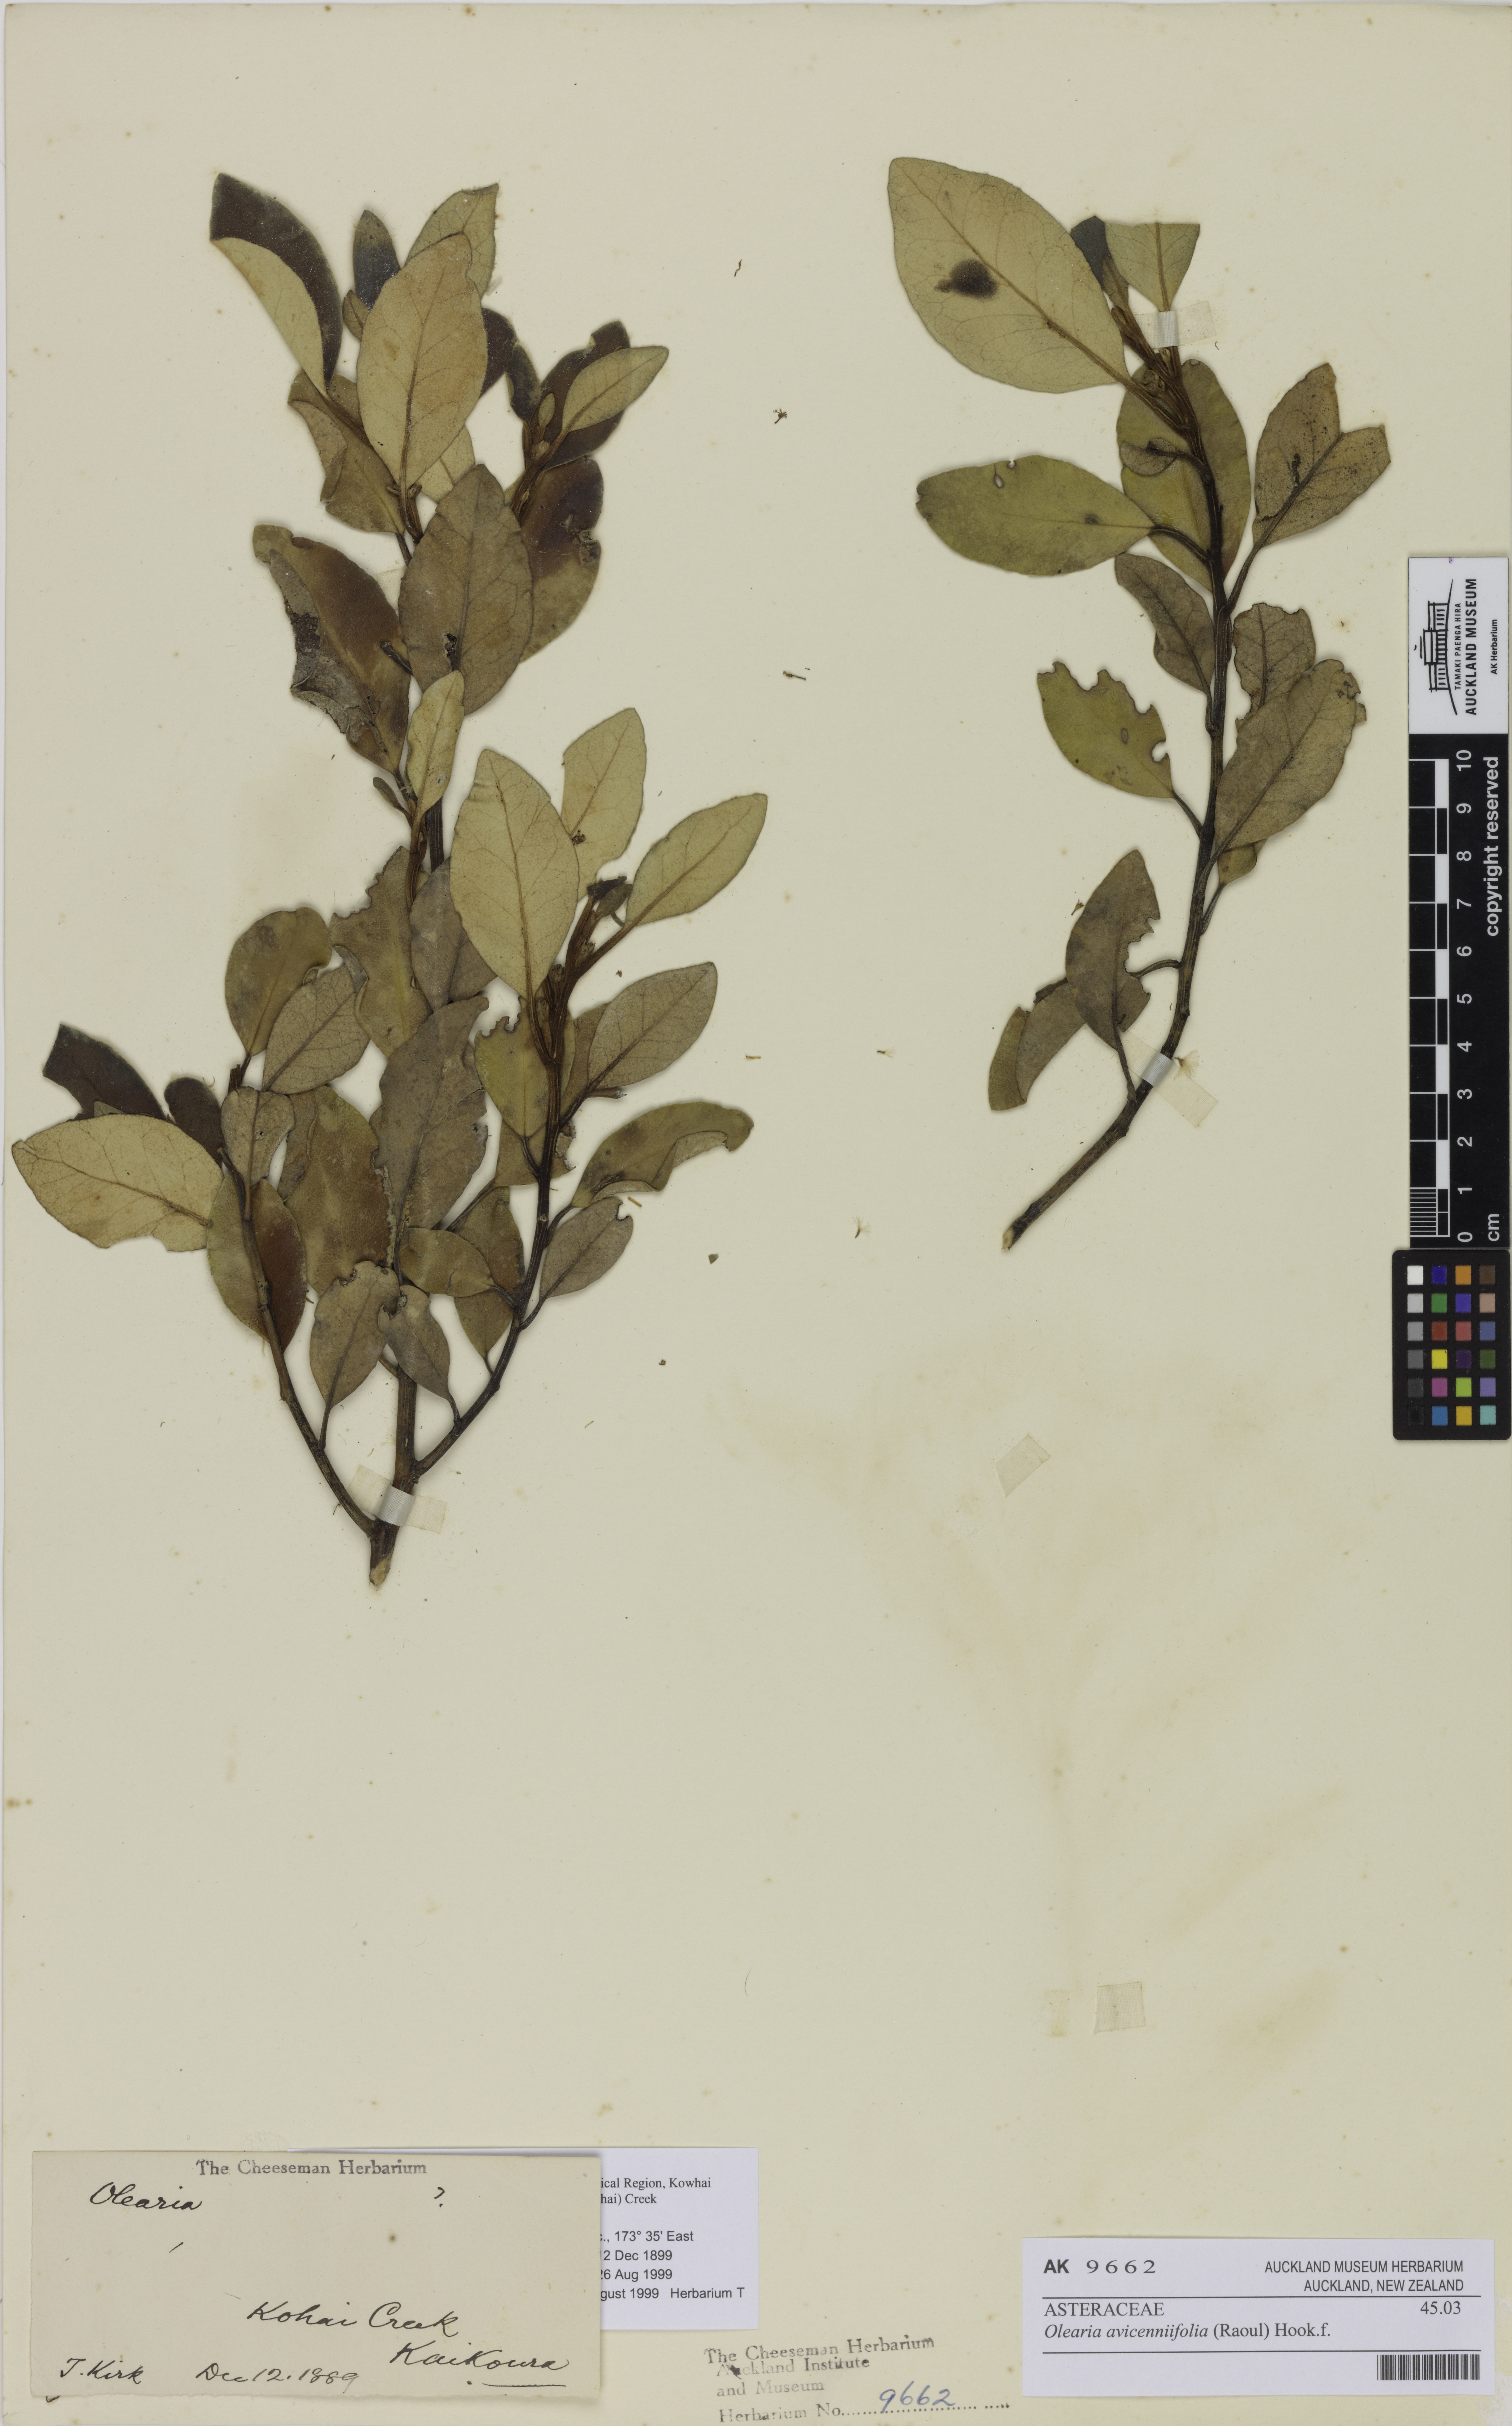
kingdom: Plantae
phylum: Tracheophyta
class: Magnoliopsida
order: Asterales
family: Asteraceae
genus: Olearia
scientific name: Olearia avicenniifolia
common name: Mangrove-leaf daisybush
